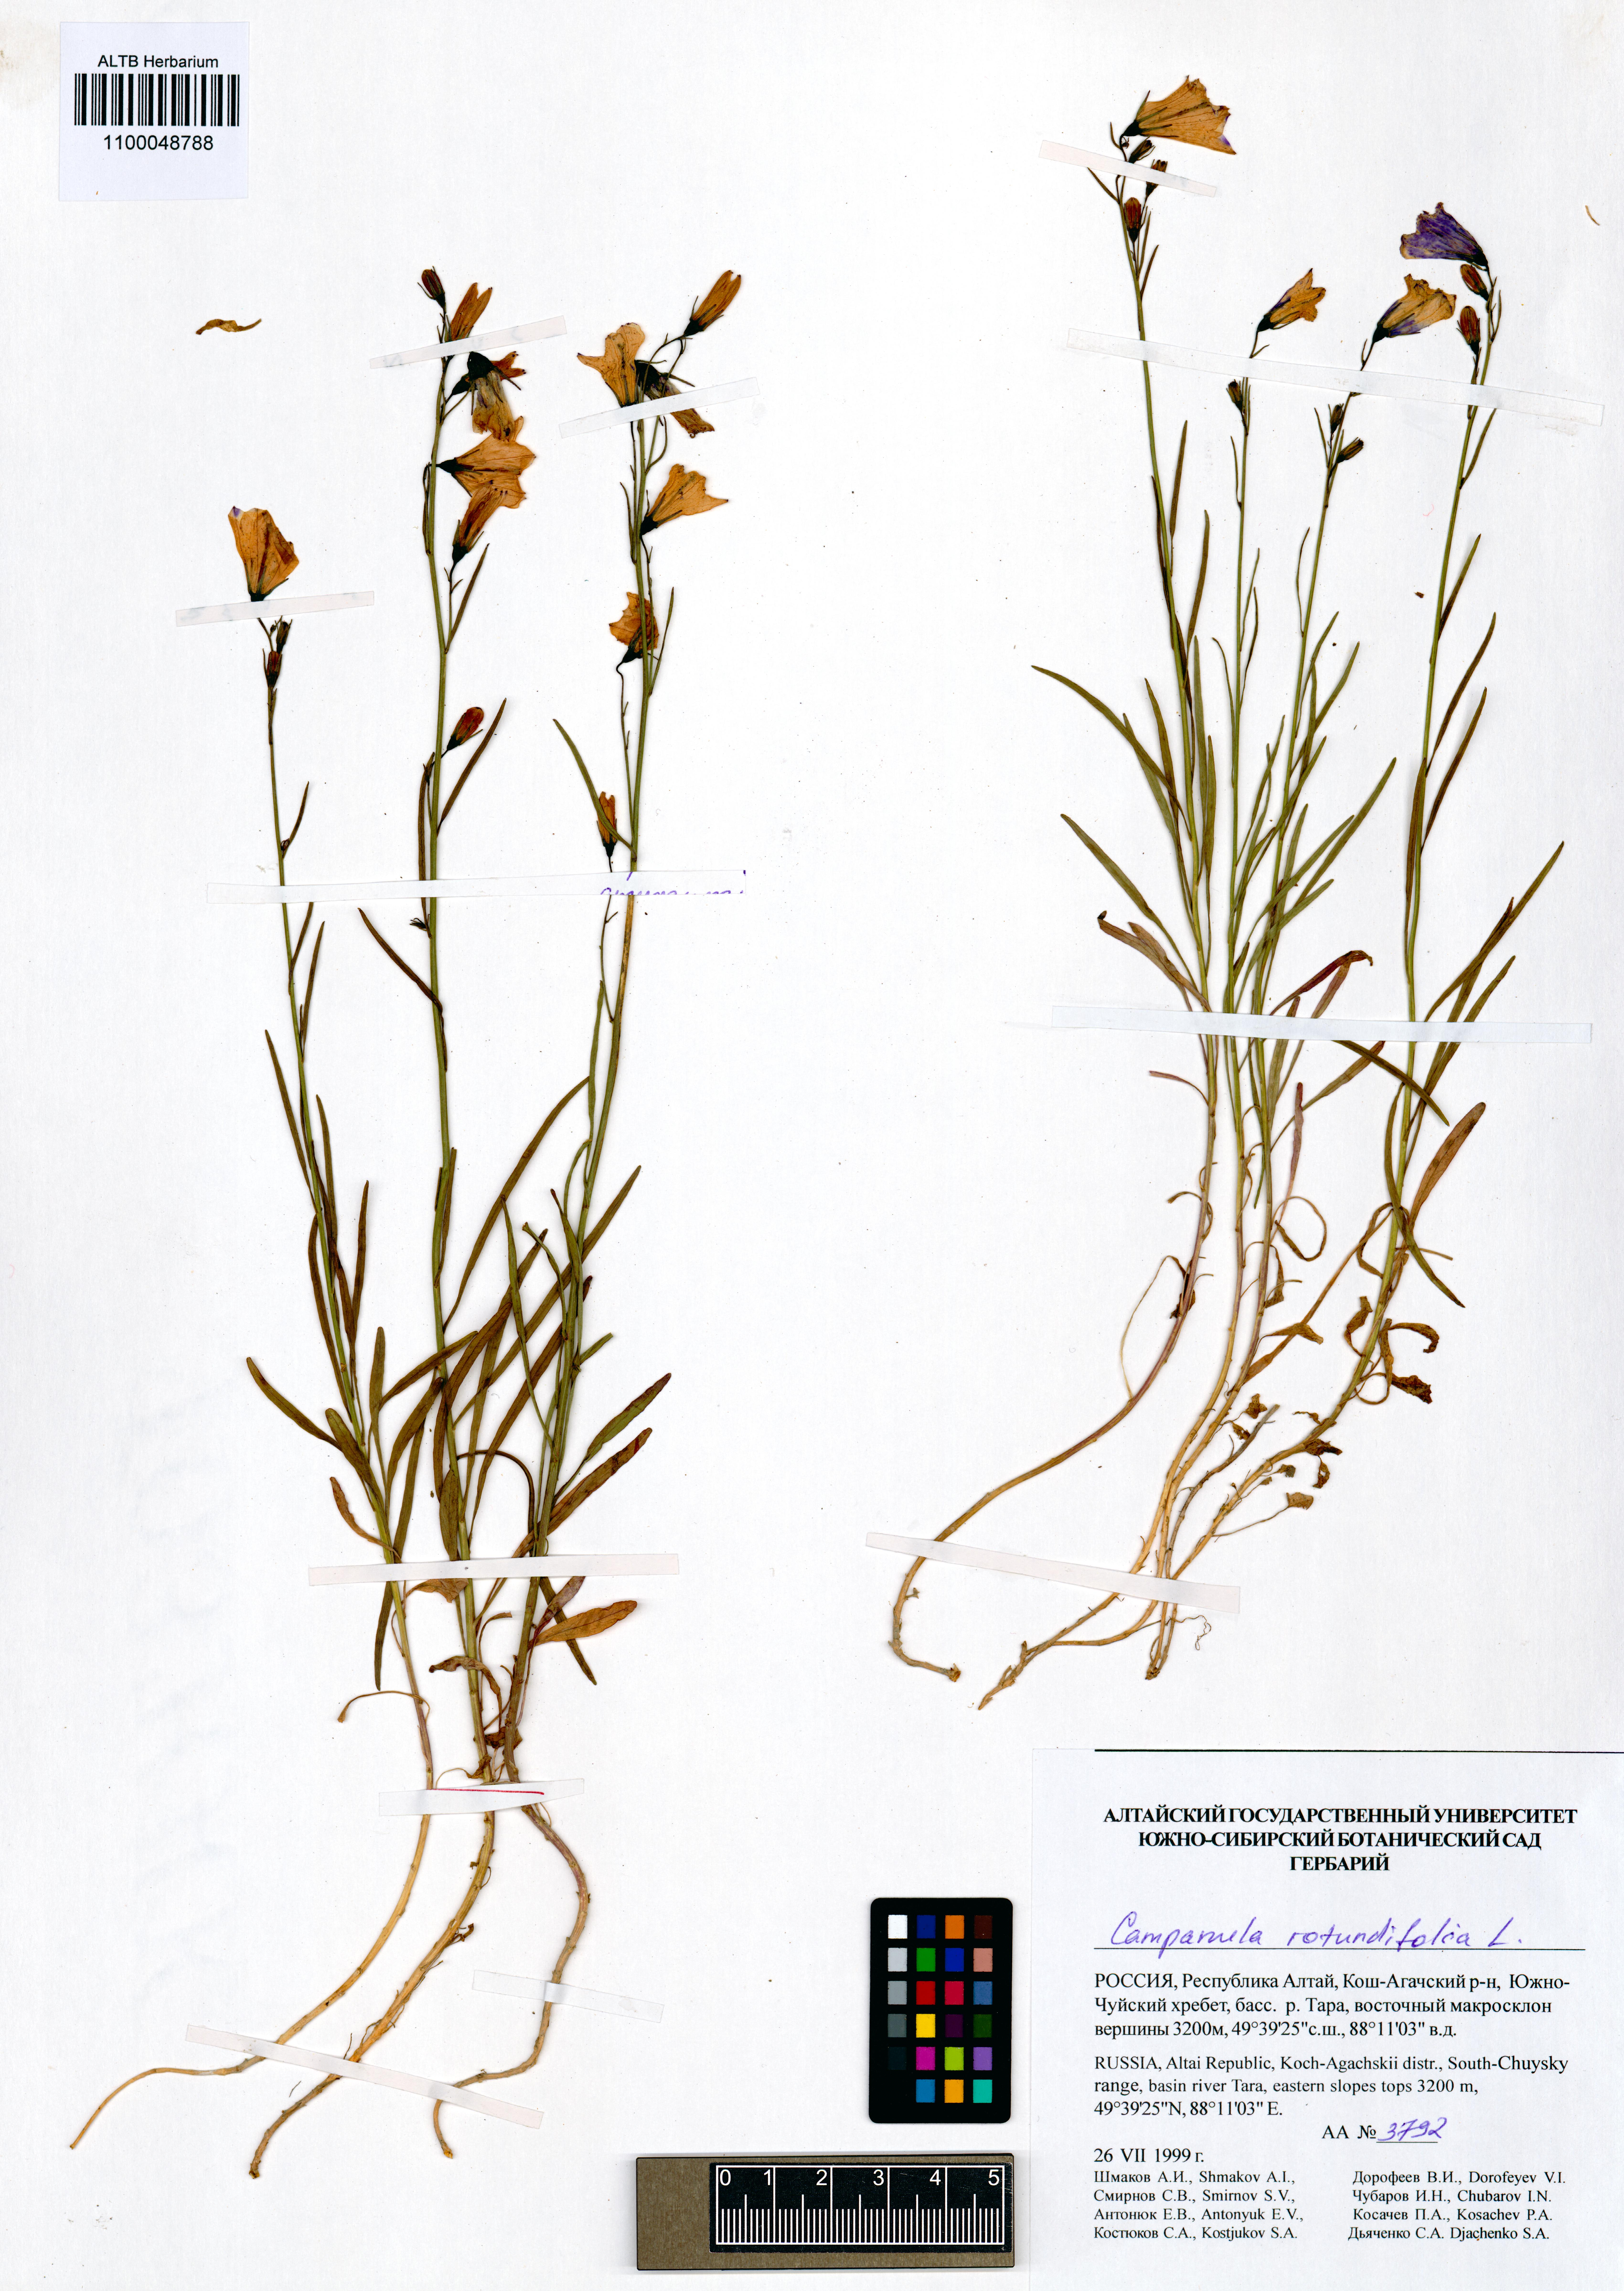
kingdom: Plantae
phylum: Tracheophyta
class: Magnoliopsida
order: Asterales
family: Campanulaceae
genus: Campanula
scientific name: Campanula rotundifolia
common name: Harebell
